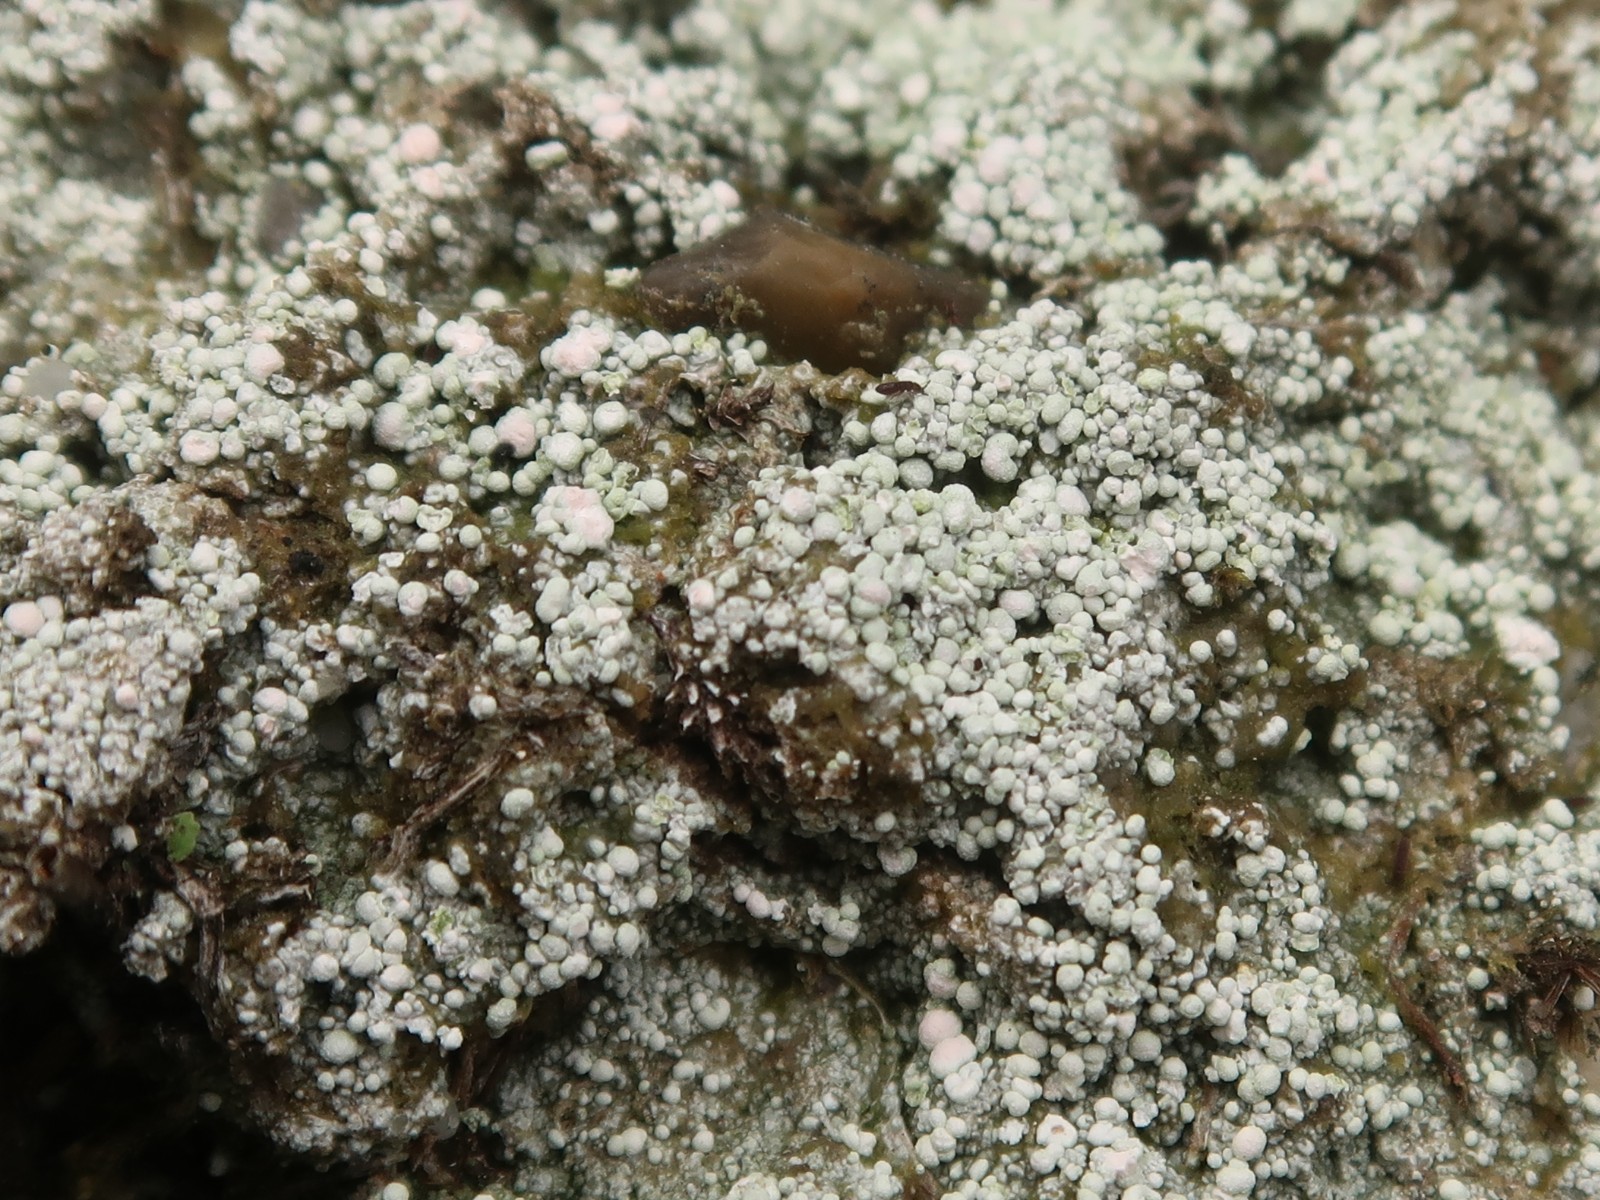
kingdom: Fungi
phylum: Ascomycota
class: Lecanoromycetes
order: Pertusariales
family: Icmadophilaceae
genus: Dibaeis
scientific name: Dibaeis baeomyces
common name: rosenrød stilav
